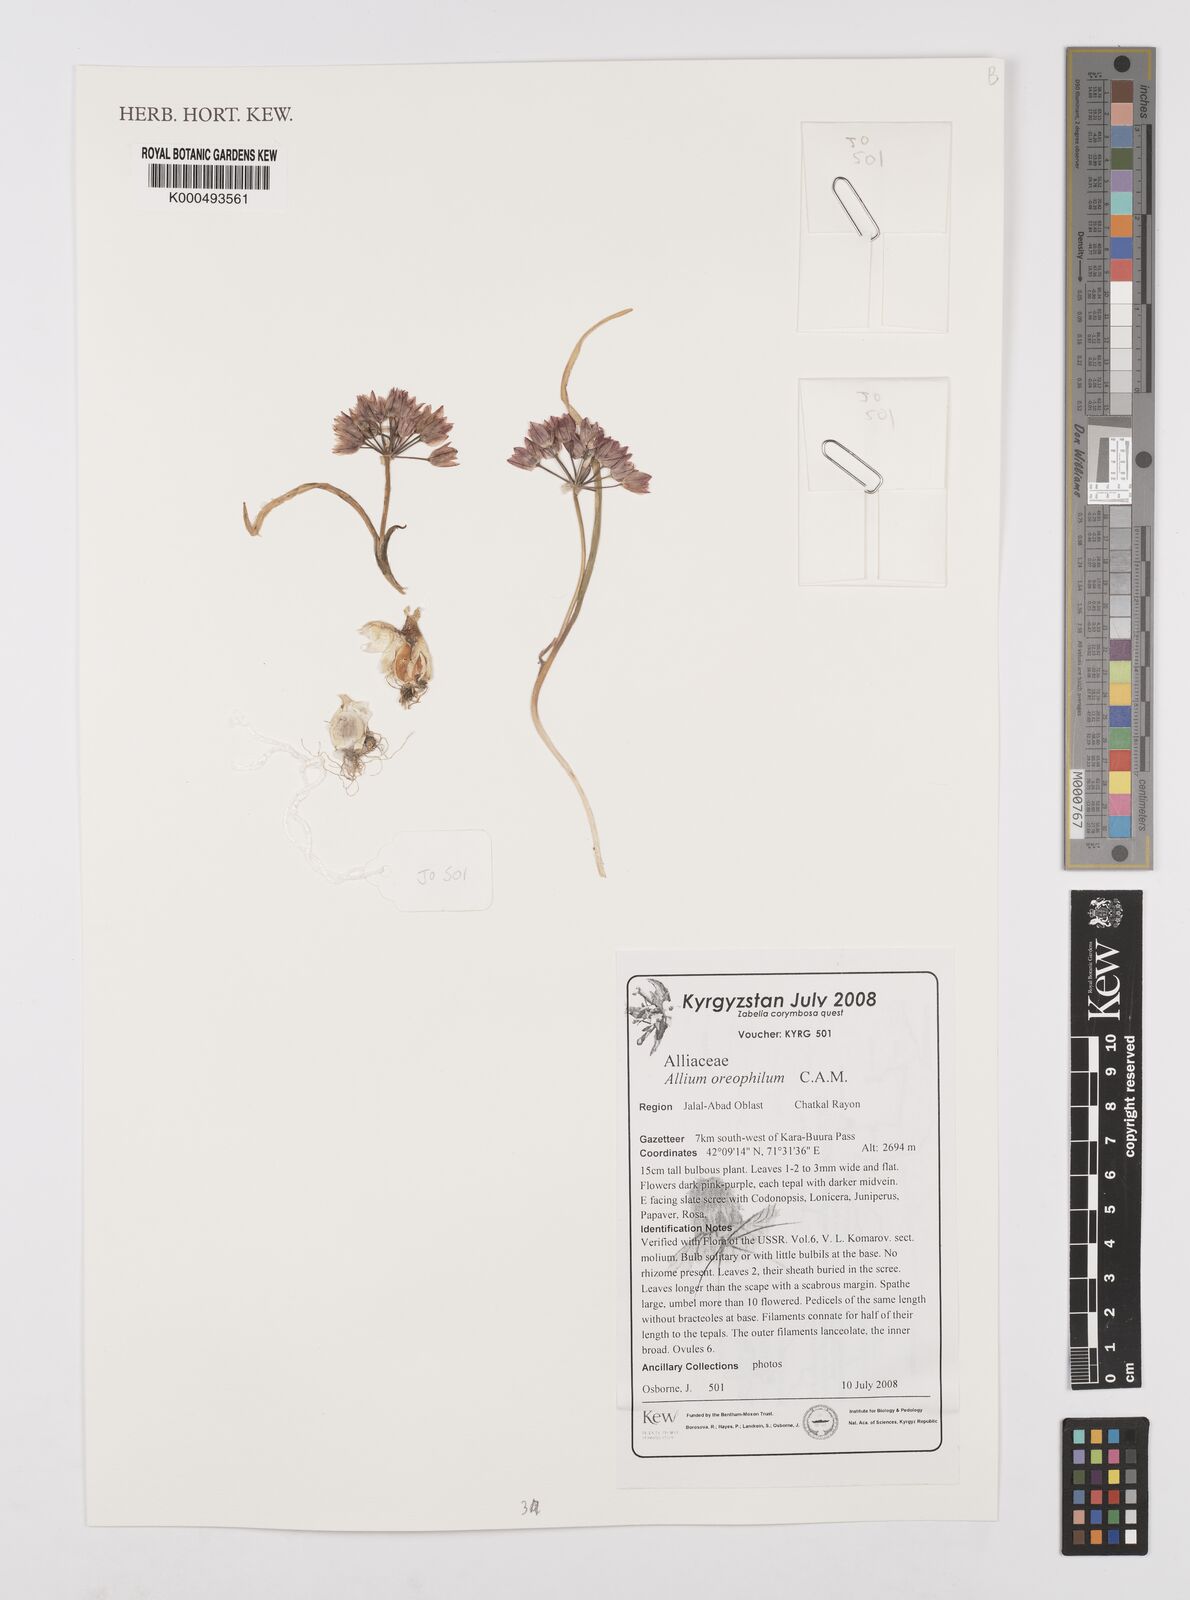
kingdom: Plantae
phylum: Tracheophyta
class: Polypodiopsida
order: Hymenophyllales
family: Hymenophyllaceae
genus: Didymoglossum
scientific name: Didymoglossum erosum
